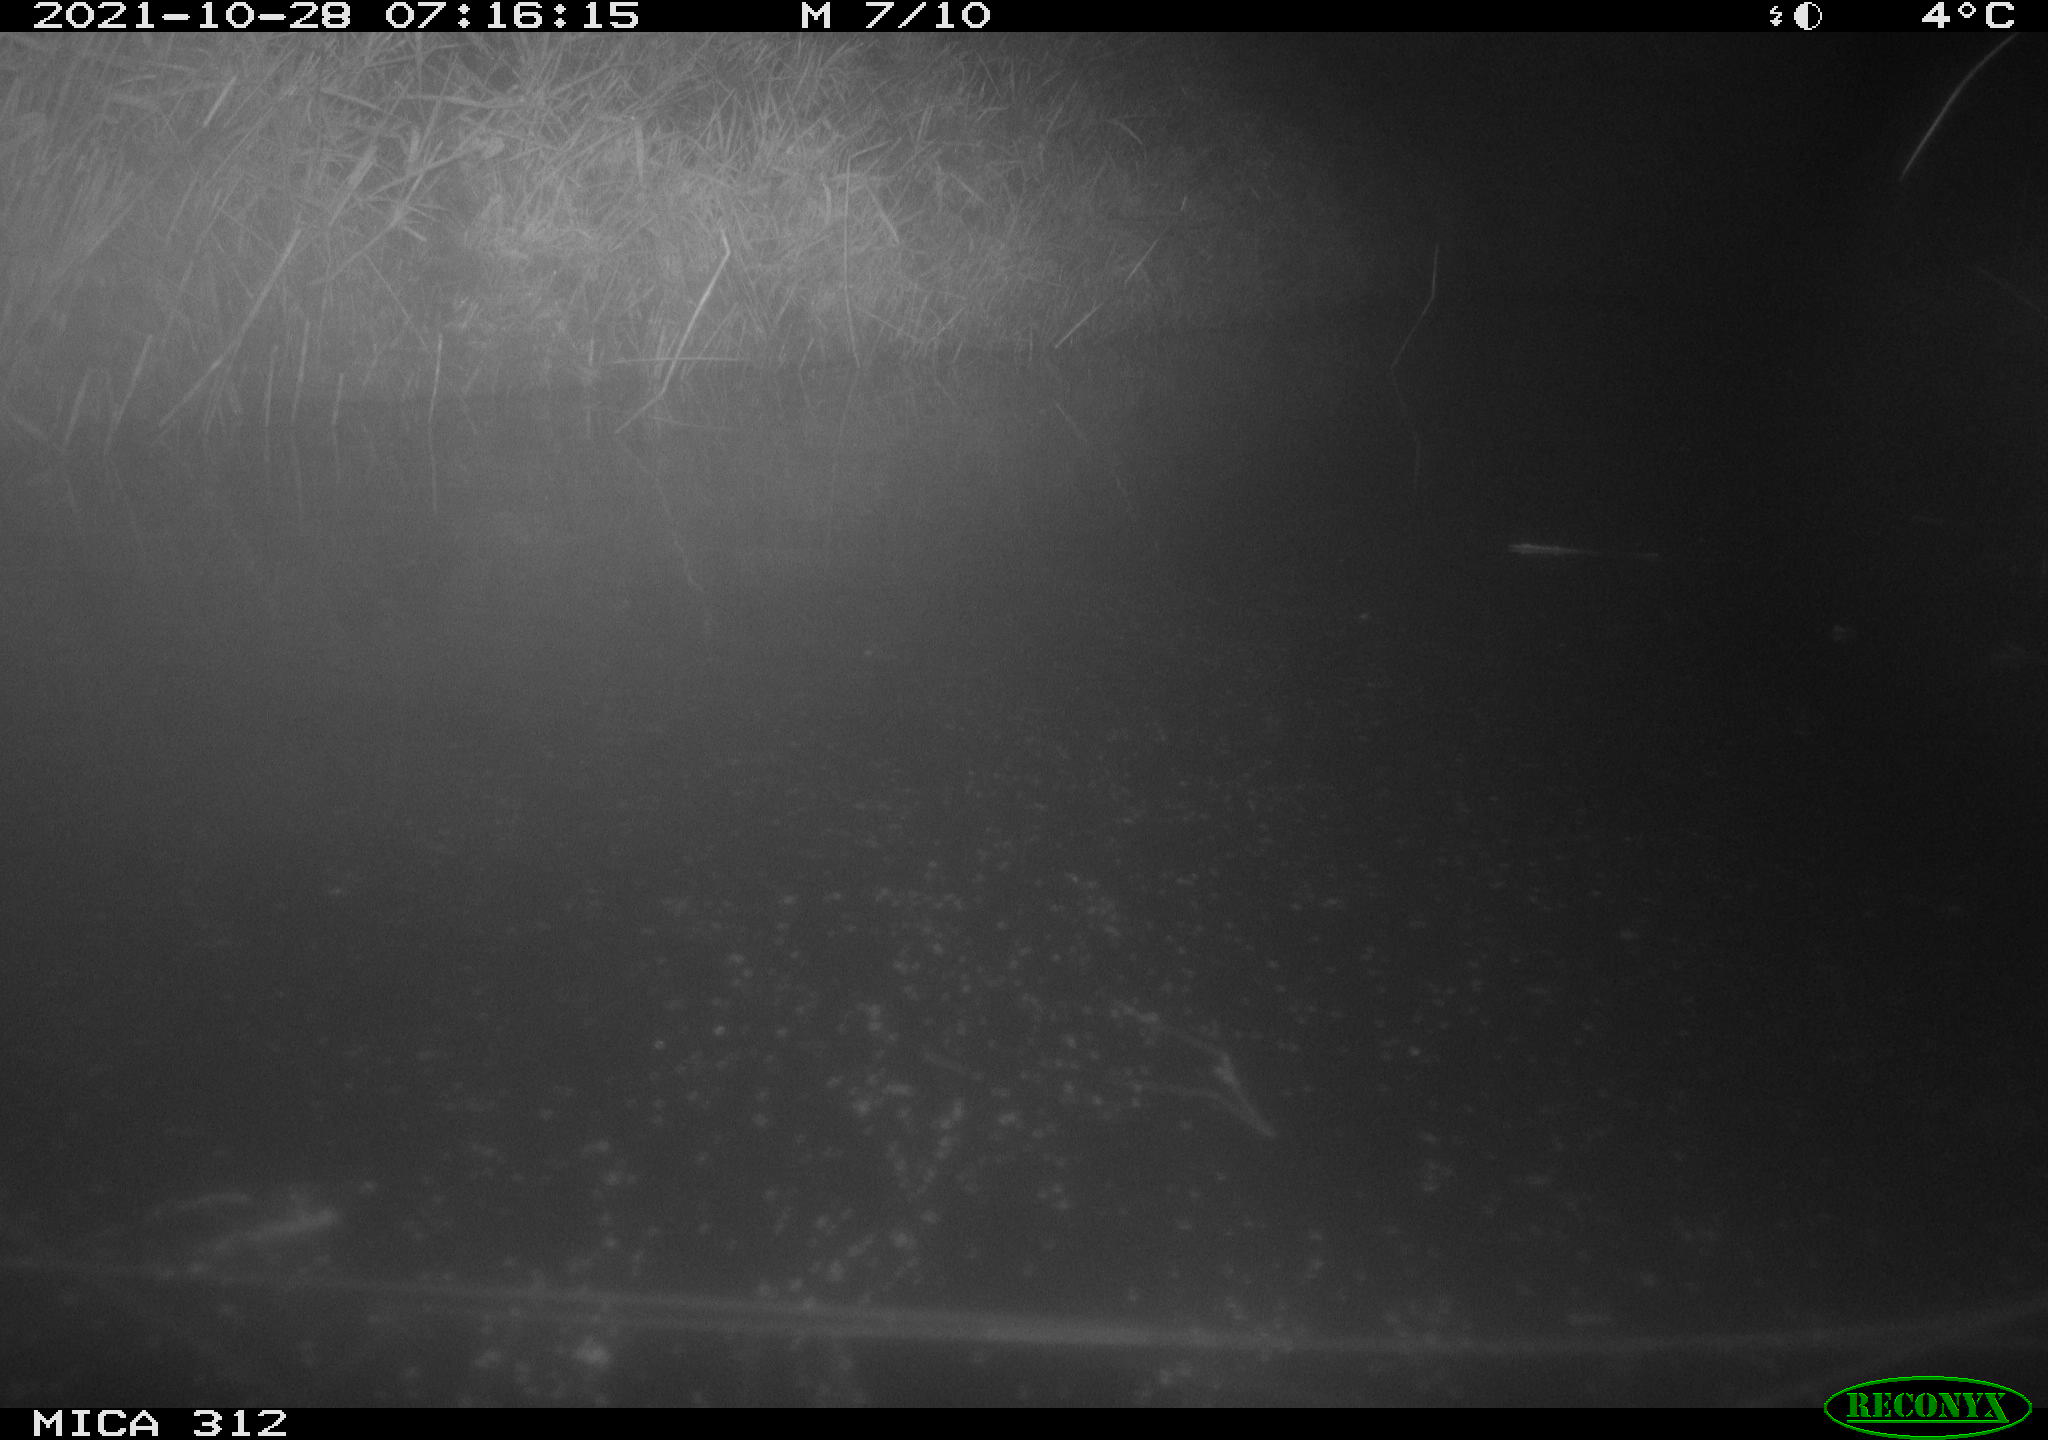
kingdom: Animalia
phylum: Chordata
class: Aves
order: Gruiformes
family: Rallidae
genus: Gallinula
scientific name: Gallinula chloropus
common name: Common moorhen
